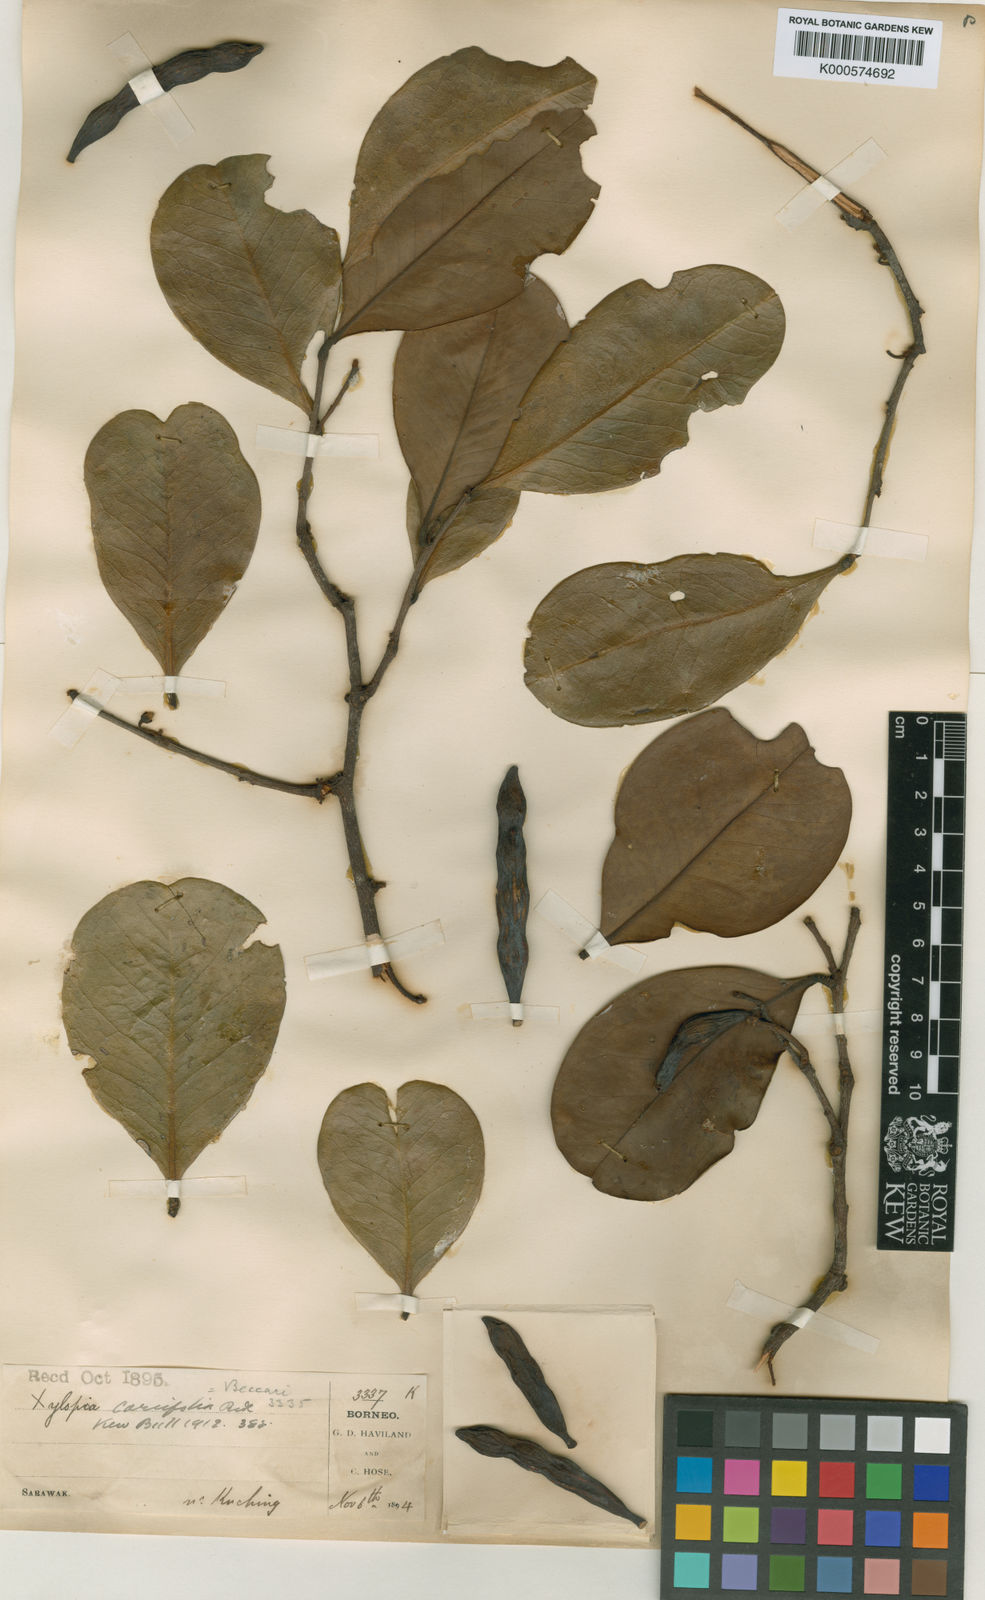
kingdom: Plantae
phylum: Tracheophyta
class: Magnoliopsida
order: Magnoliales
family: Annonaceae
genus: Xylopia
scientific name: Xylopia coriifolia
